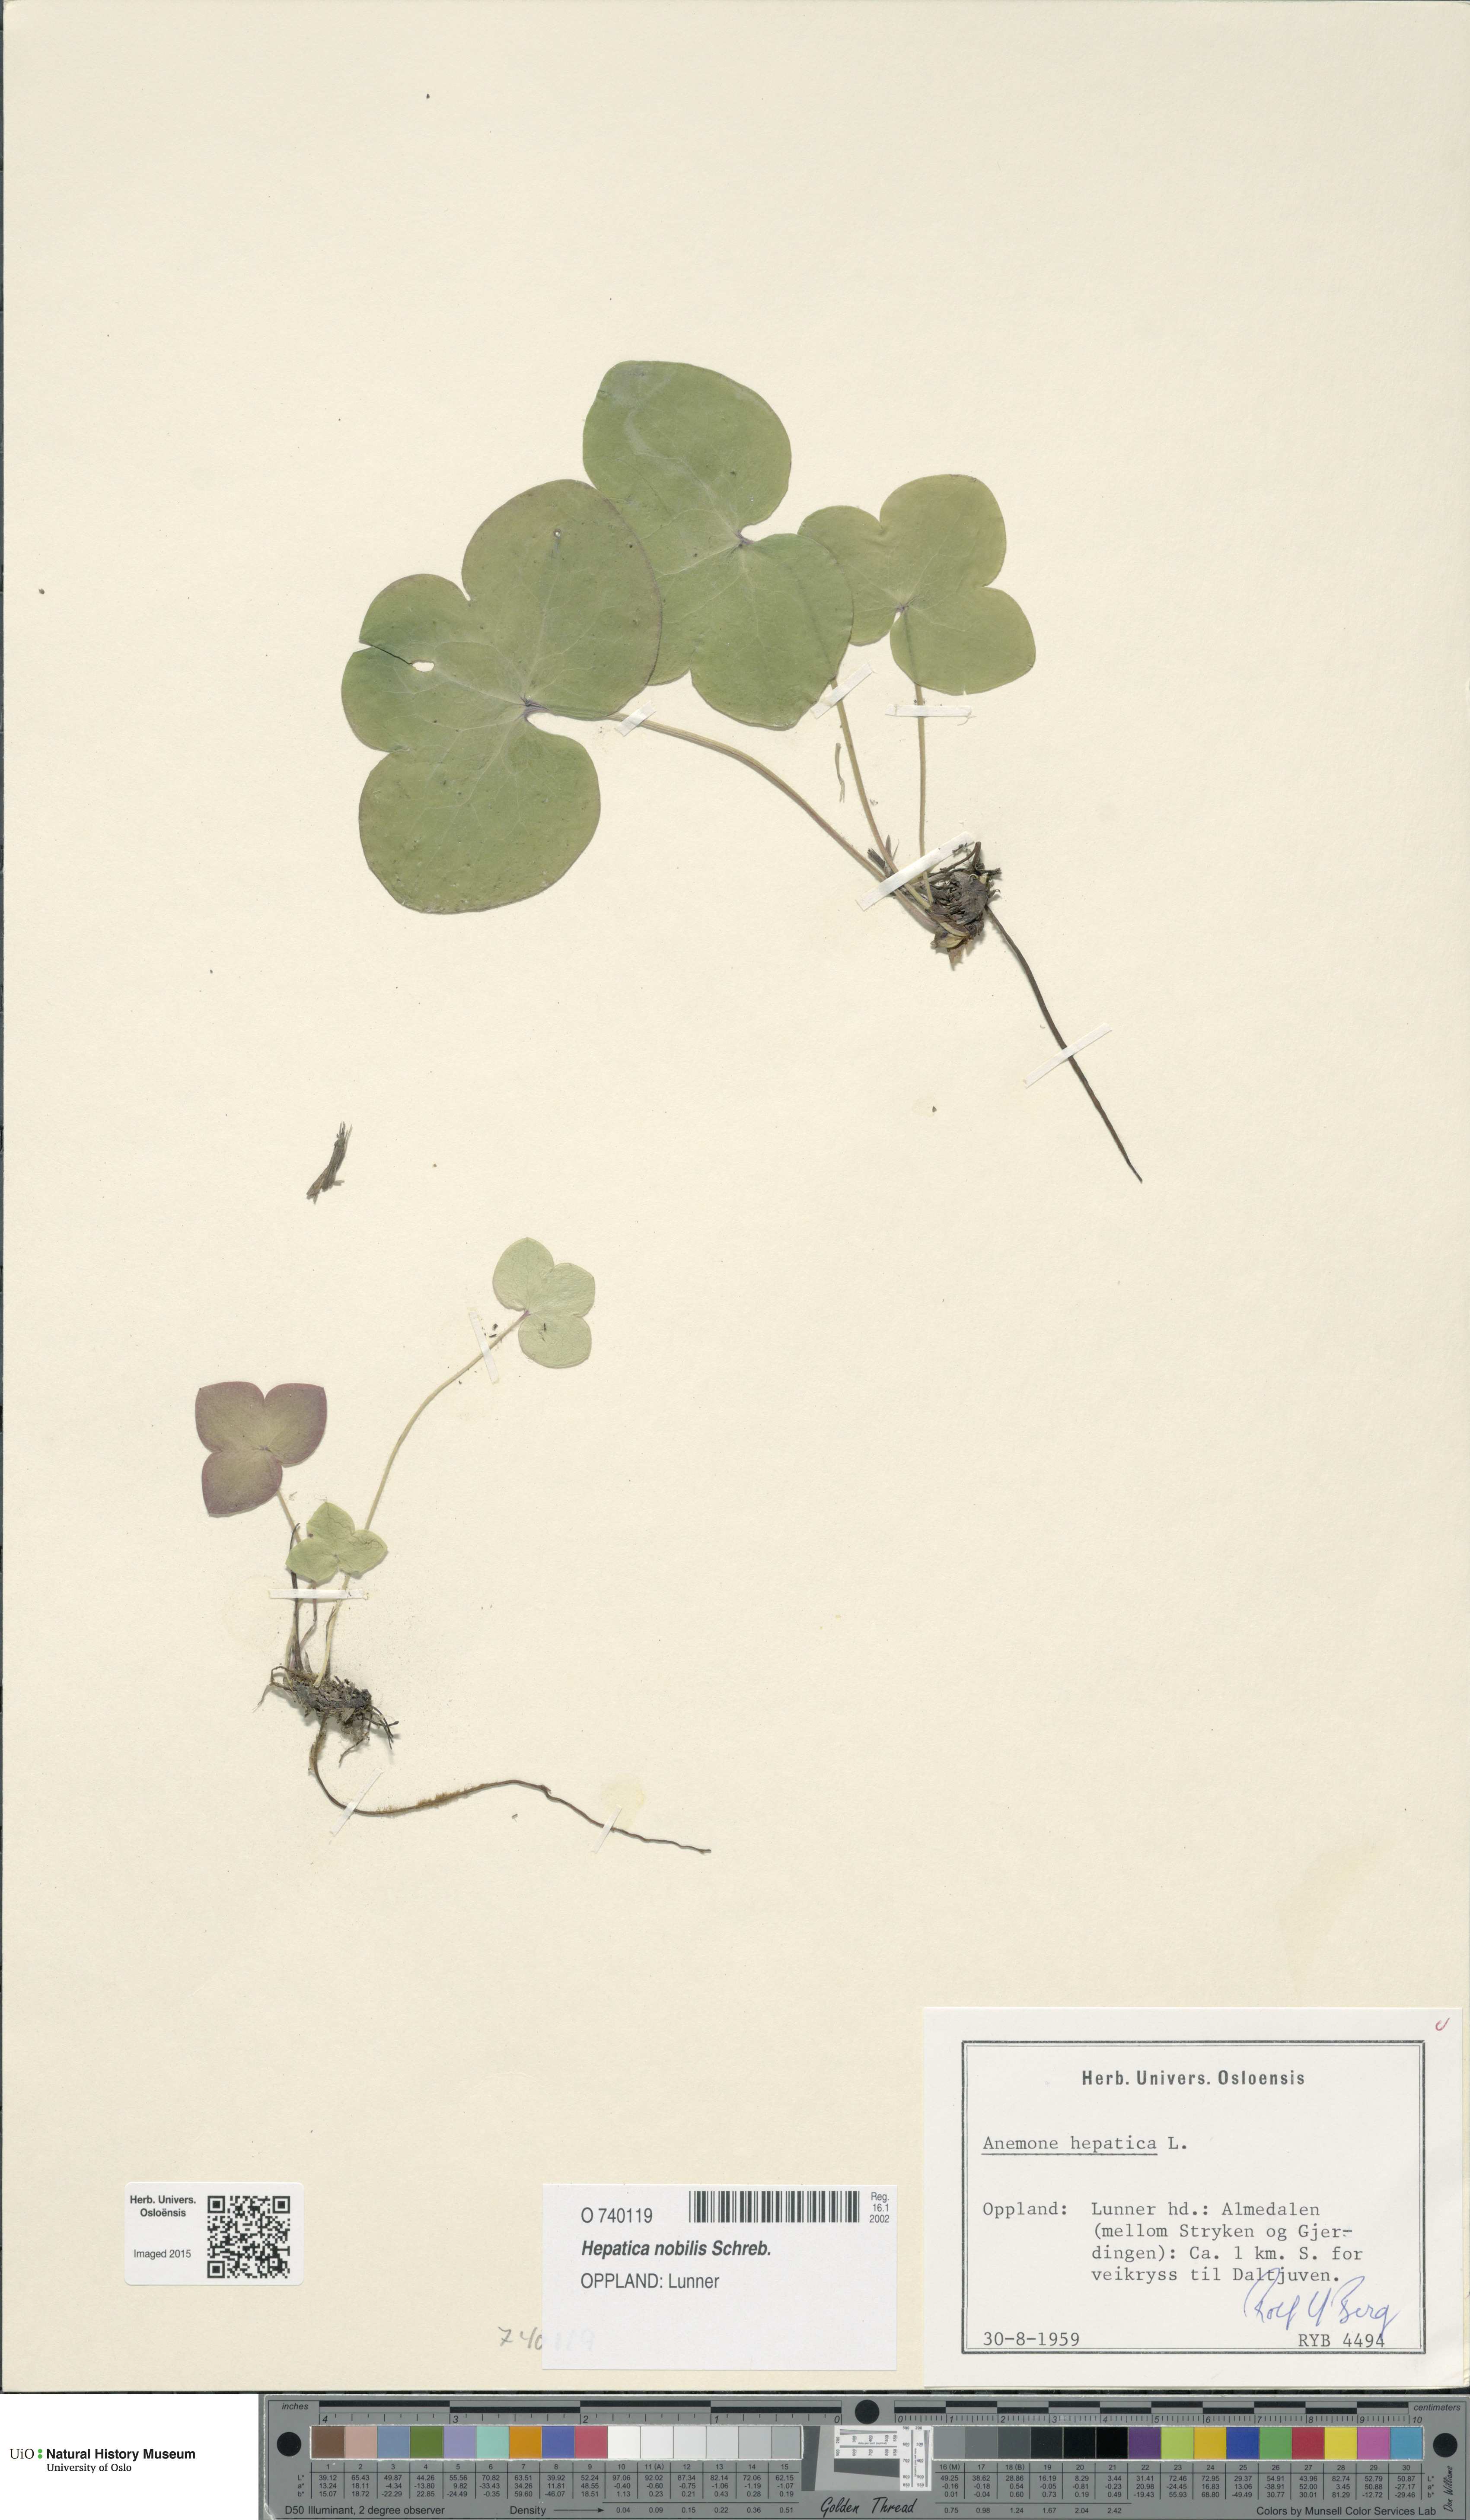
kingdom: Plantae
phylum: Tracheophyta
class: Magnoliopsida
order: Ranunculales
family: Ranunculaceae
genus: Hepatica
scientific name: Hepatica nobilis
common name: Liverleaf
